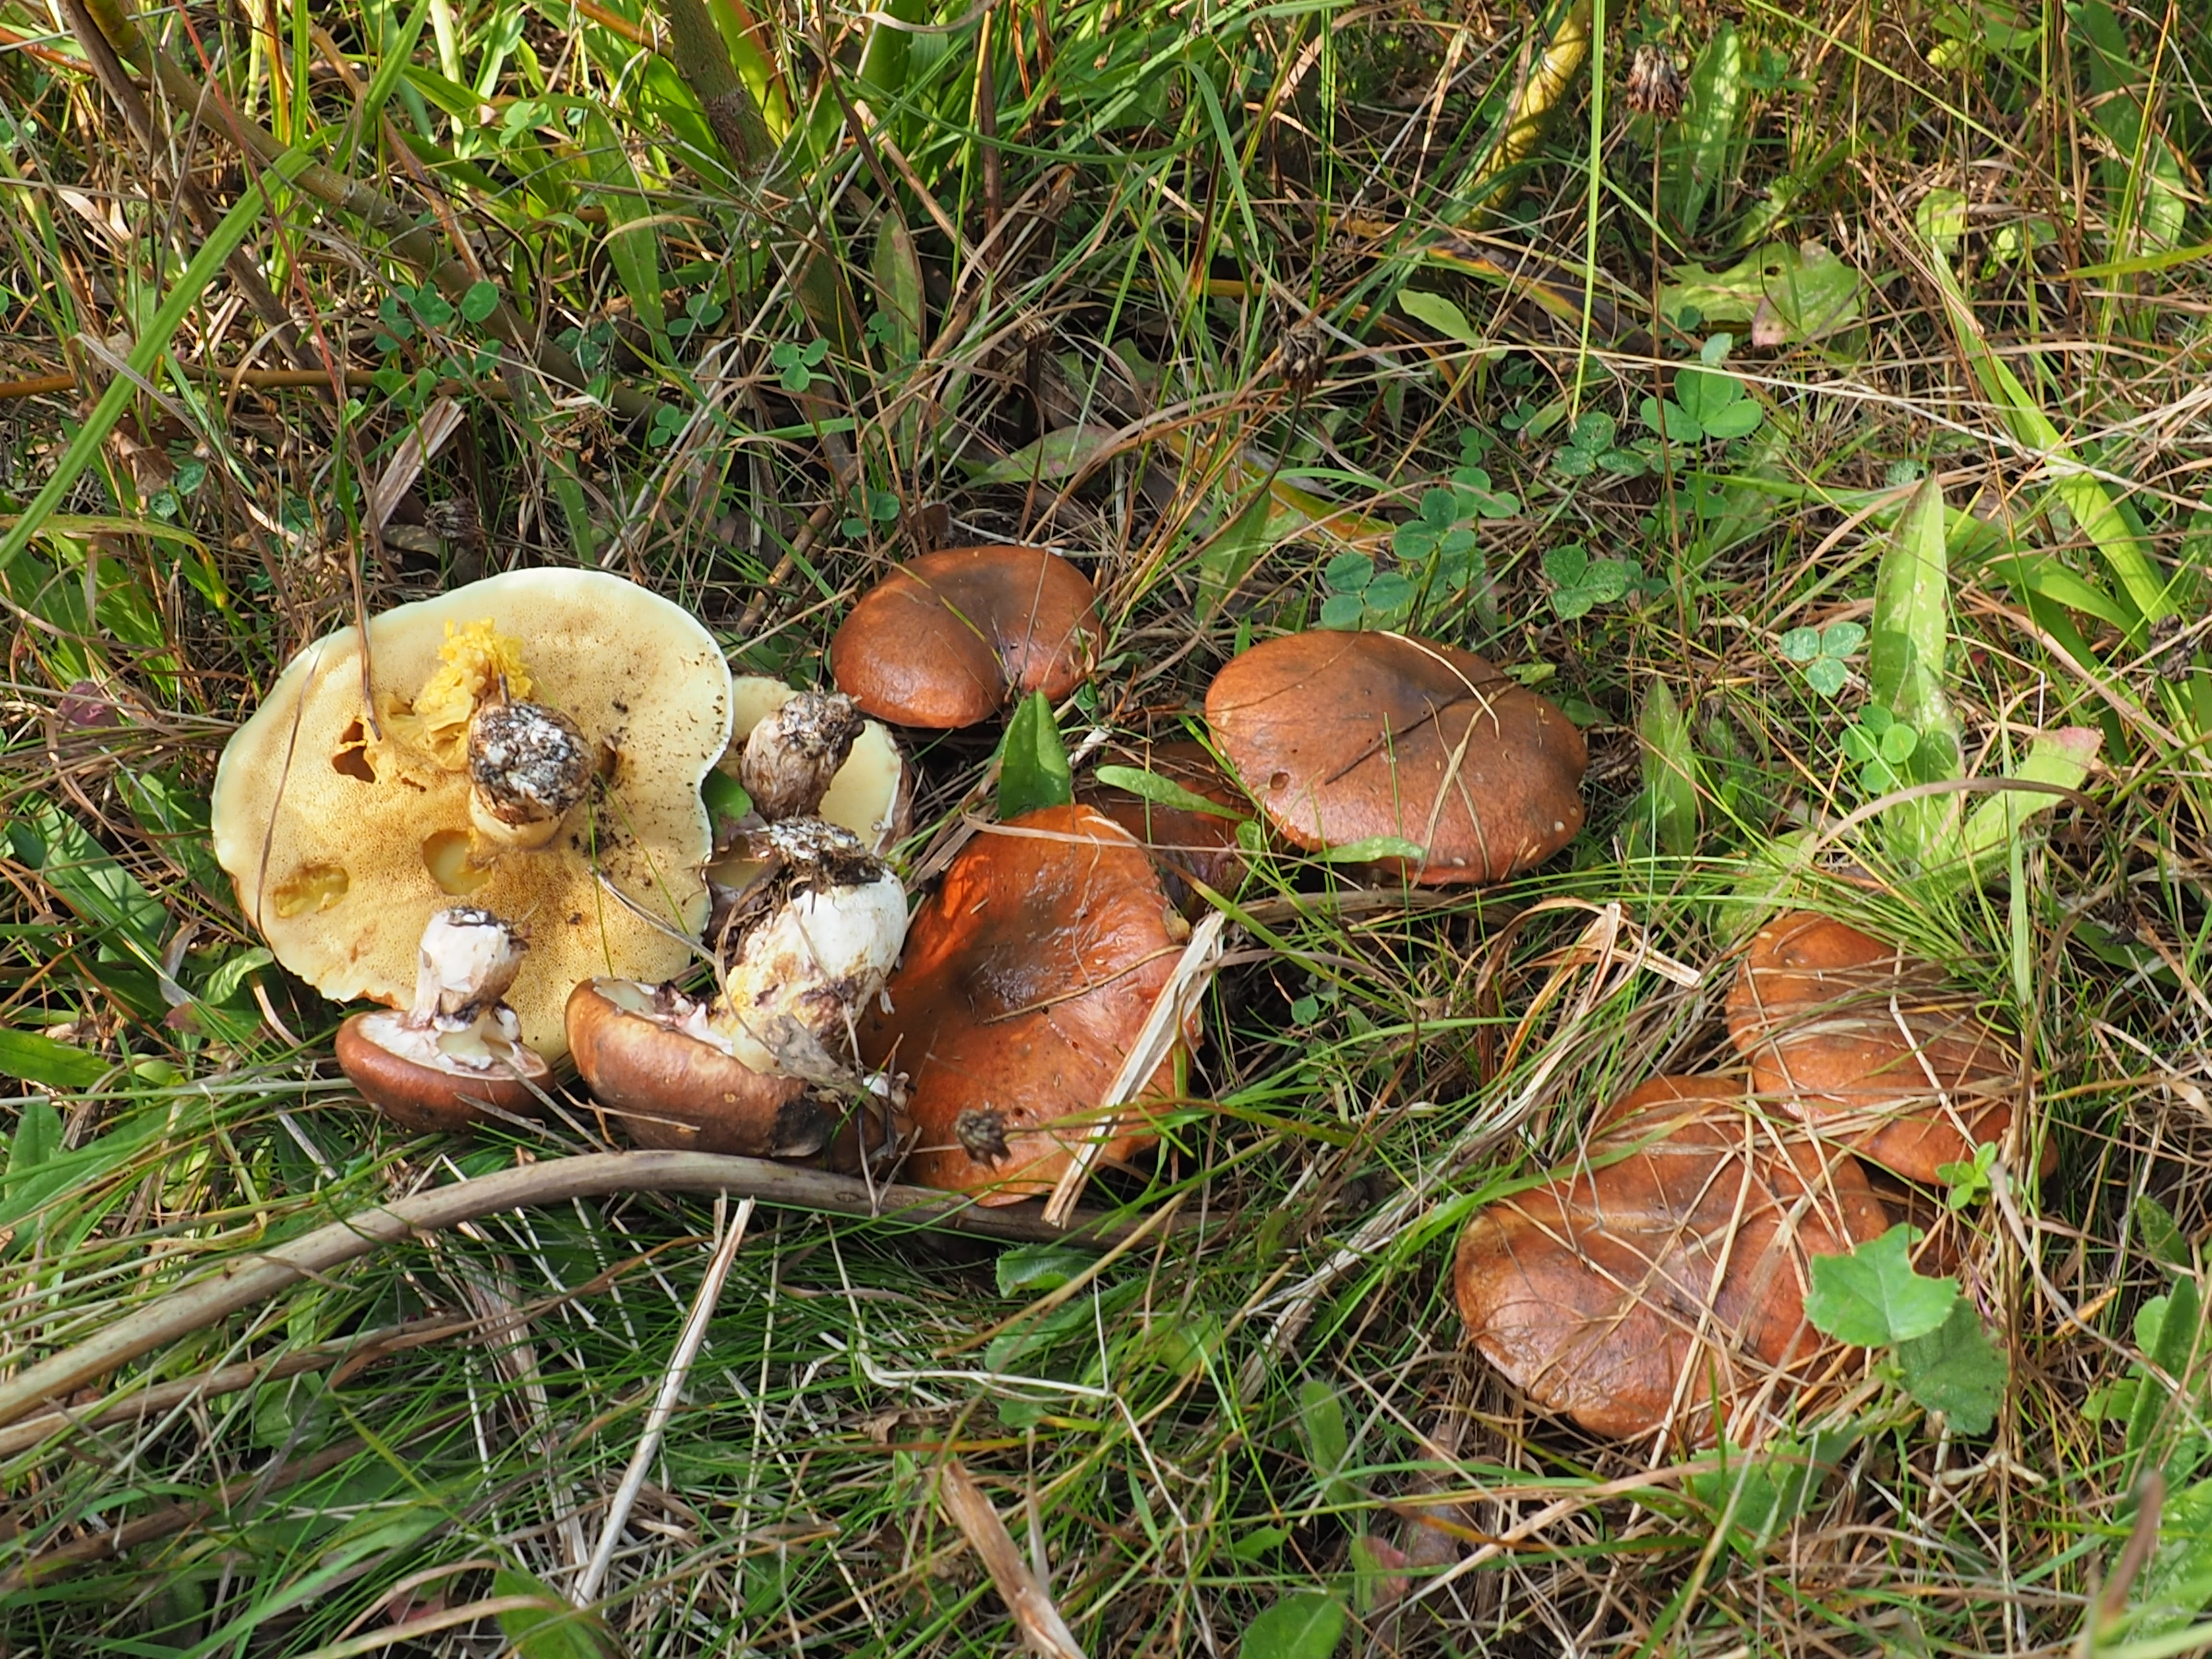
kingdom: Fungi
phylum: Basidiomycota
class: Agaricomycetes
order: Boletales
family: Suillaceae
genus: Suillus
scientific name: Suillus luteus
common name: Slippery jack
